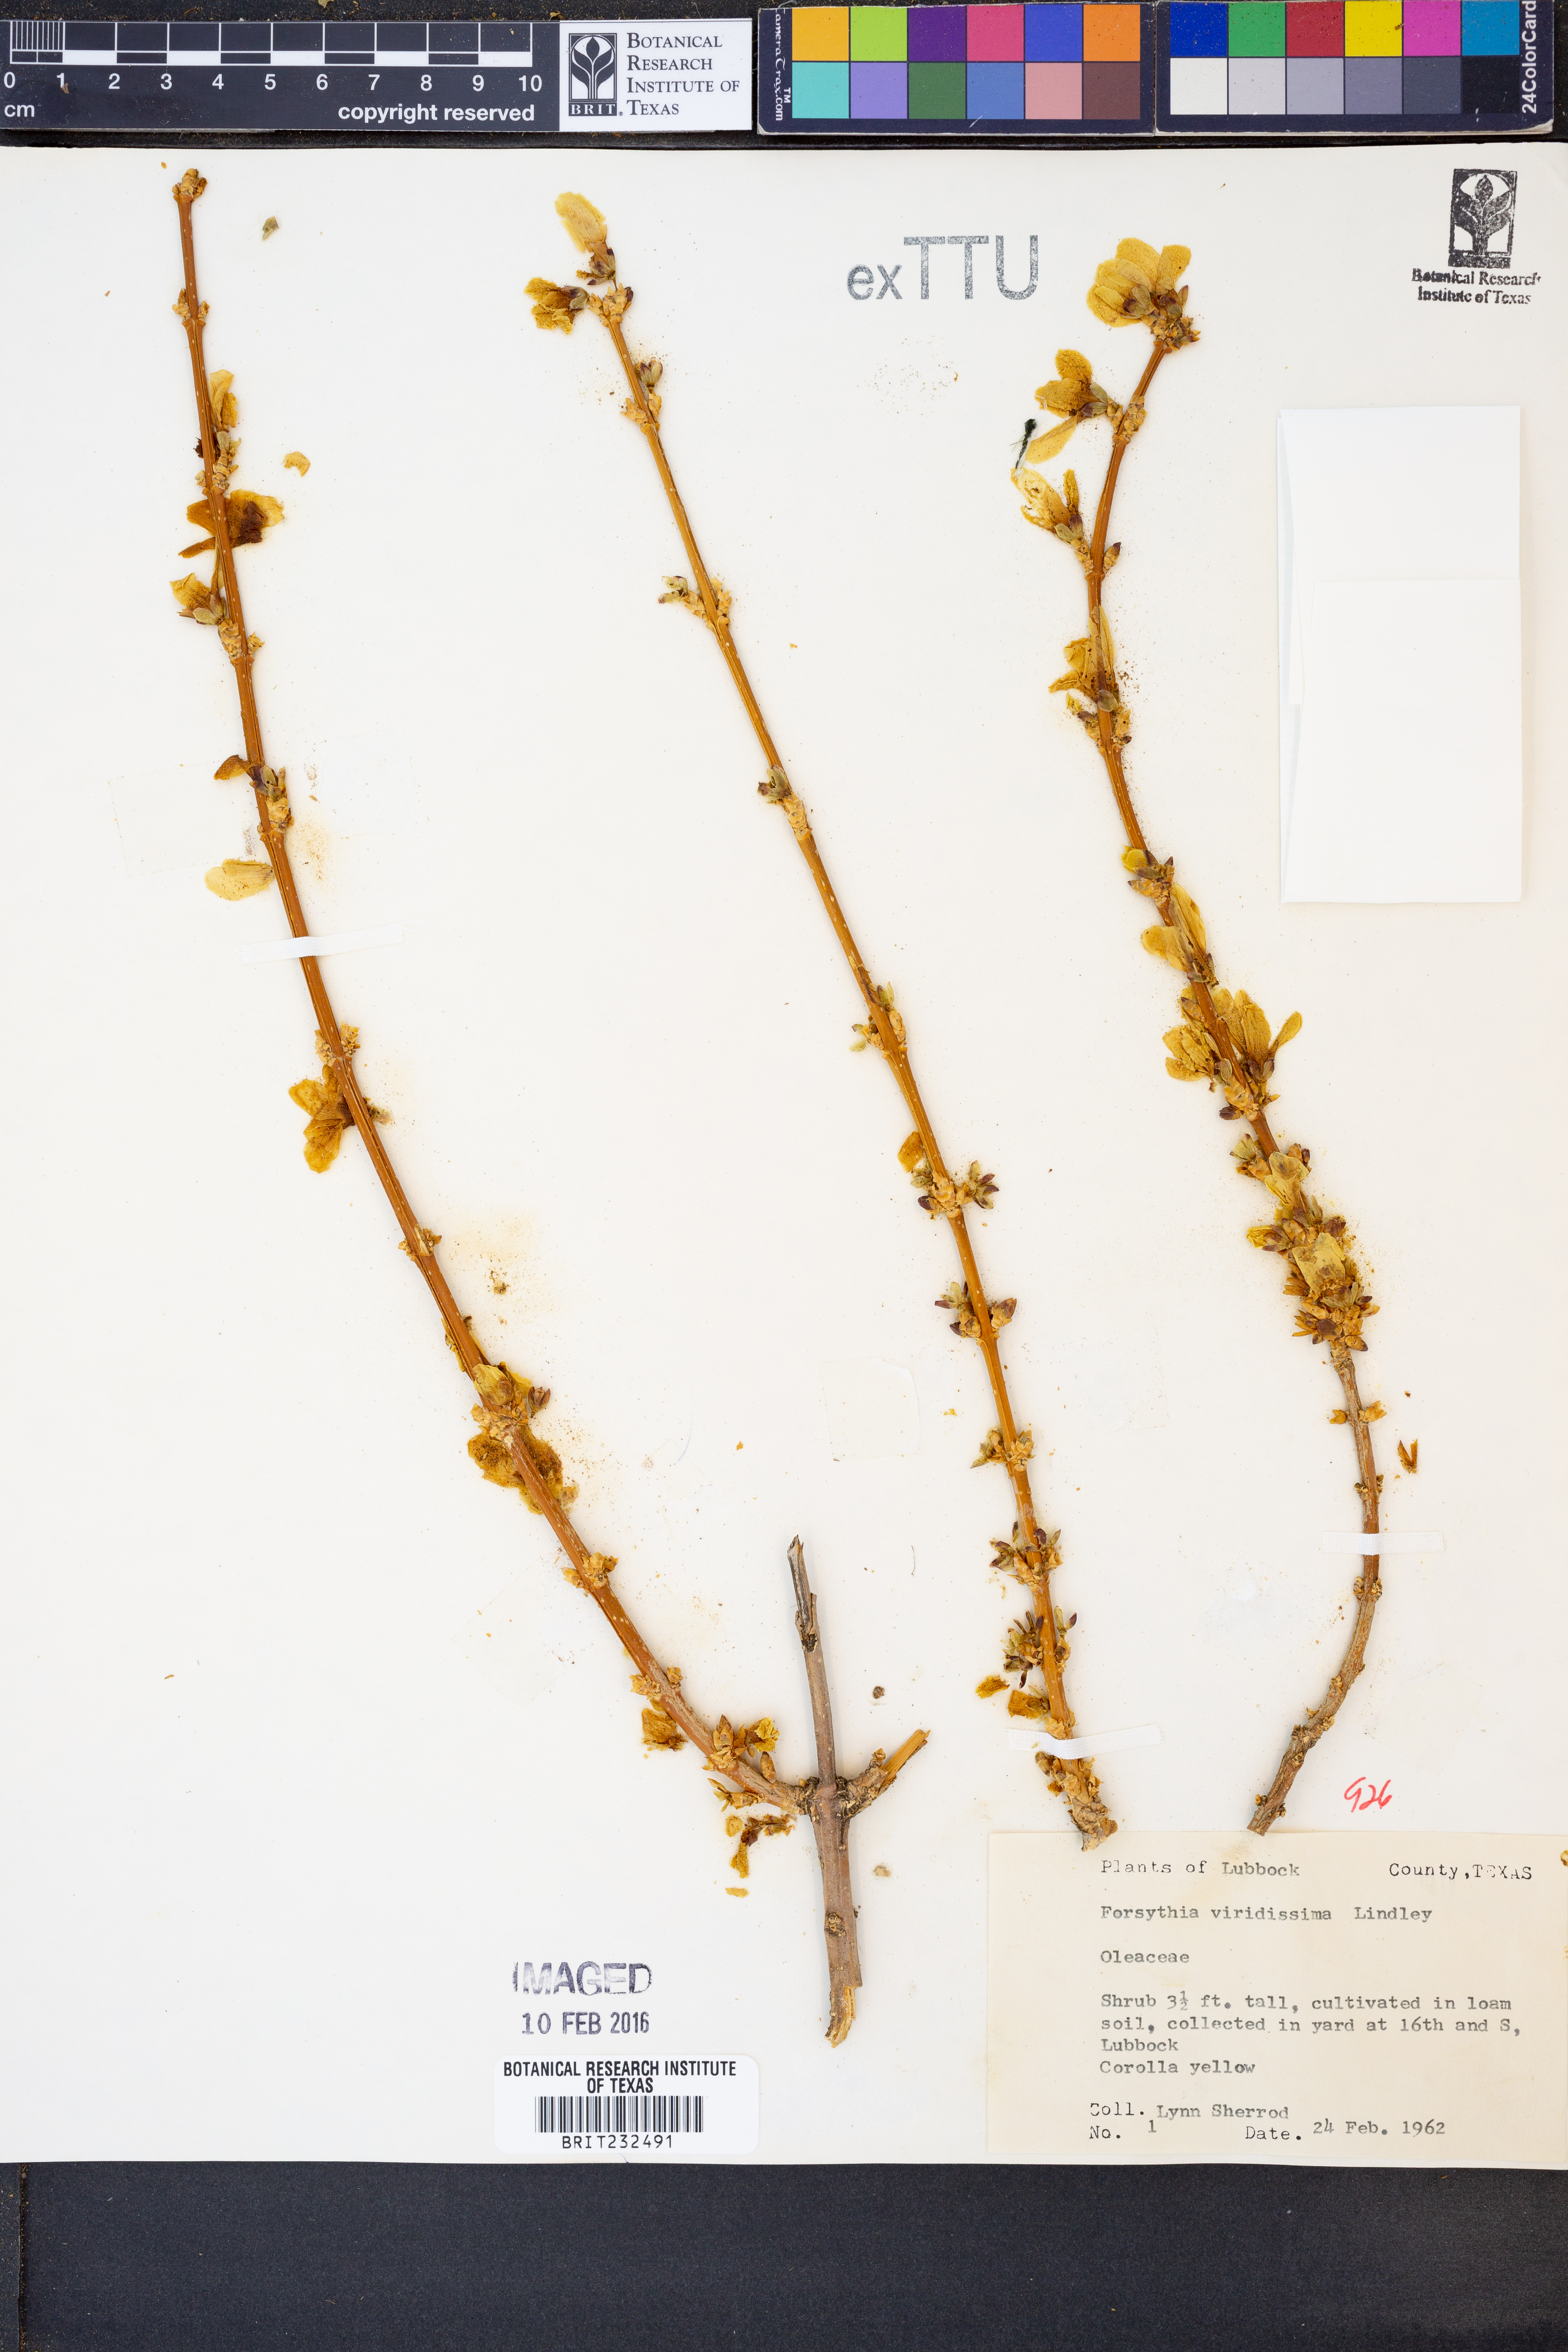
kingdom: Plantae
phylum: Tracheophyta
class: Magnoliopsida
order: Lamiales
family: Oleaceae
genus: Forsythia
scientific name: Forsythia viridissima
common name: Greenstem forsythia
